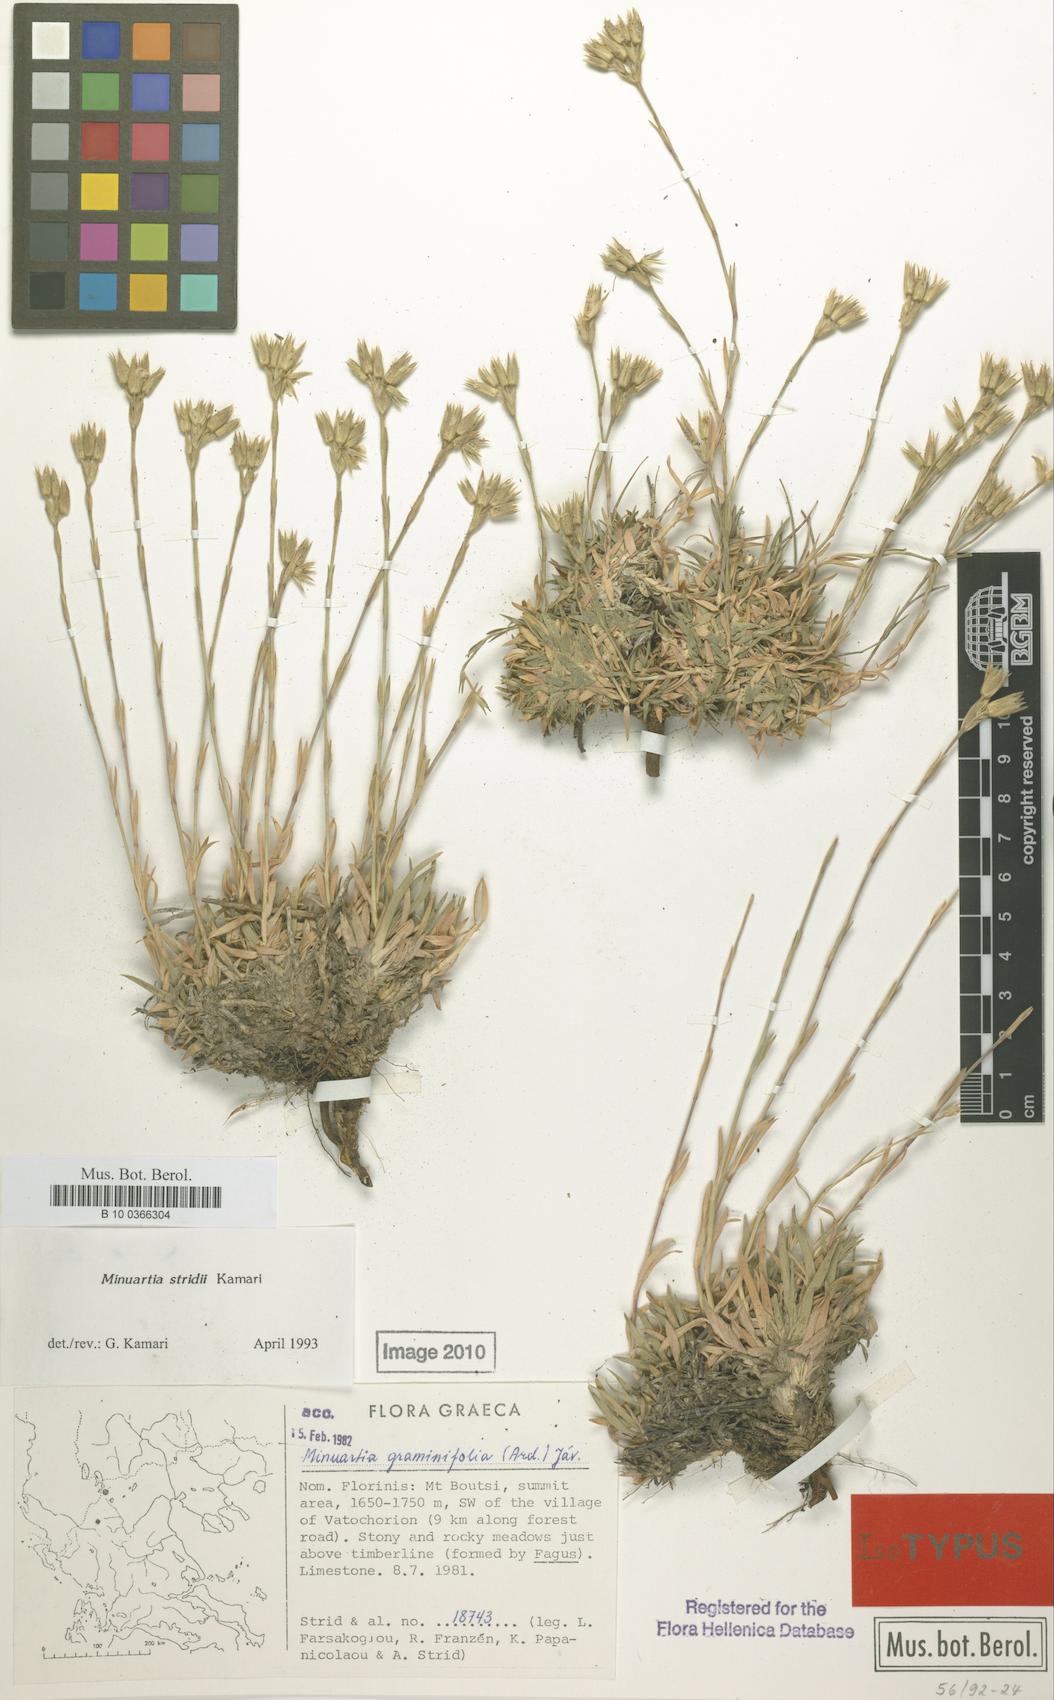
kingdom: Plantae
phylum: Tracheophyta
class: Magnoliopsida
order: Caryophyllales
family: Caryophyllaceae
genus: Mcneillia
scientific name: Mcneillia graminifolia
